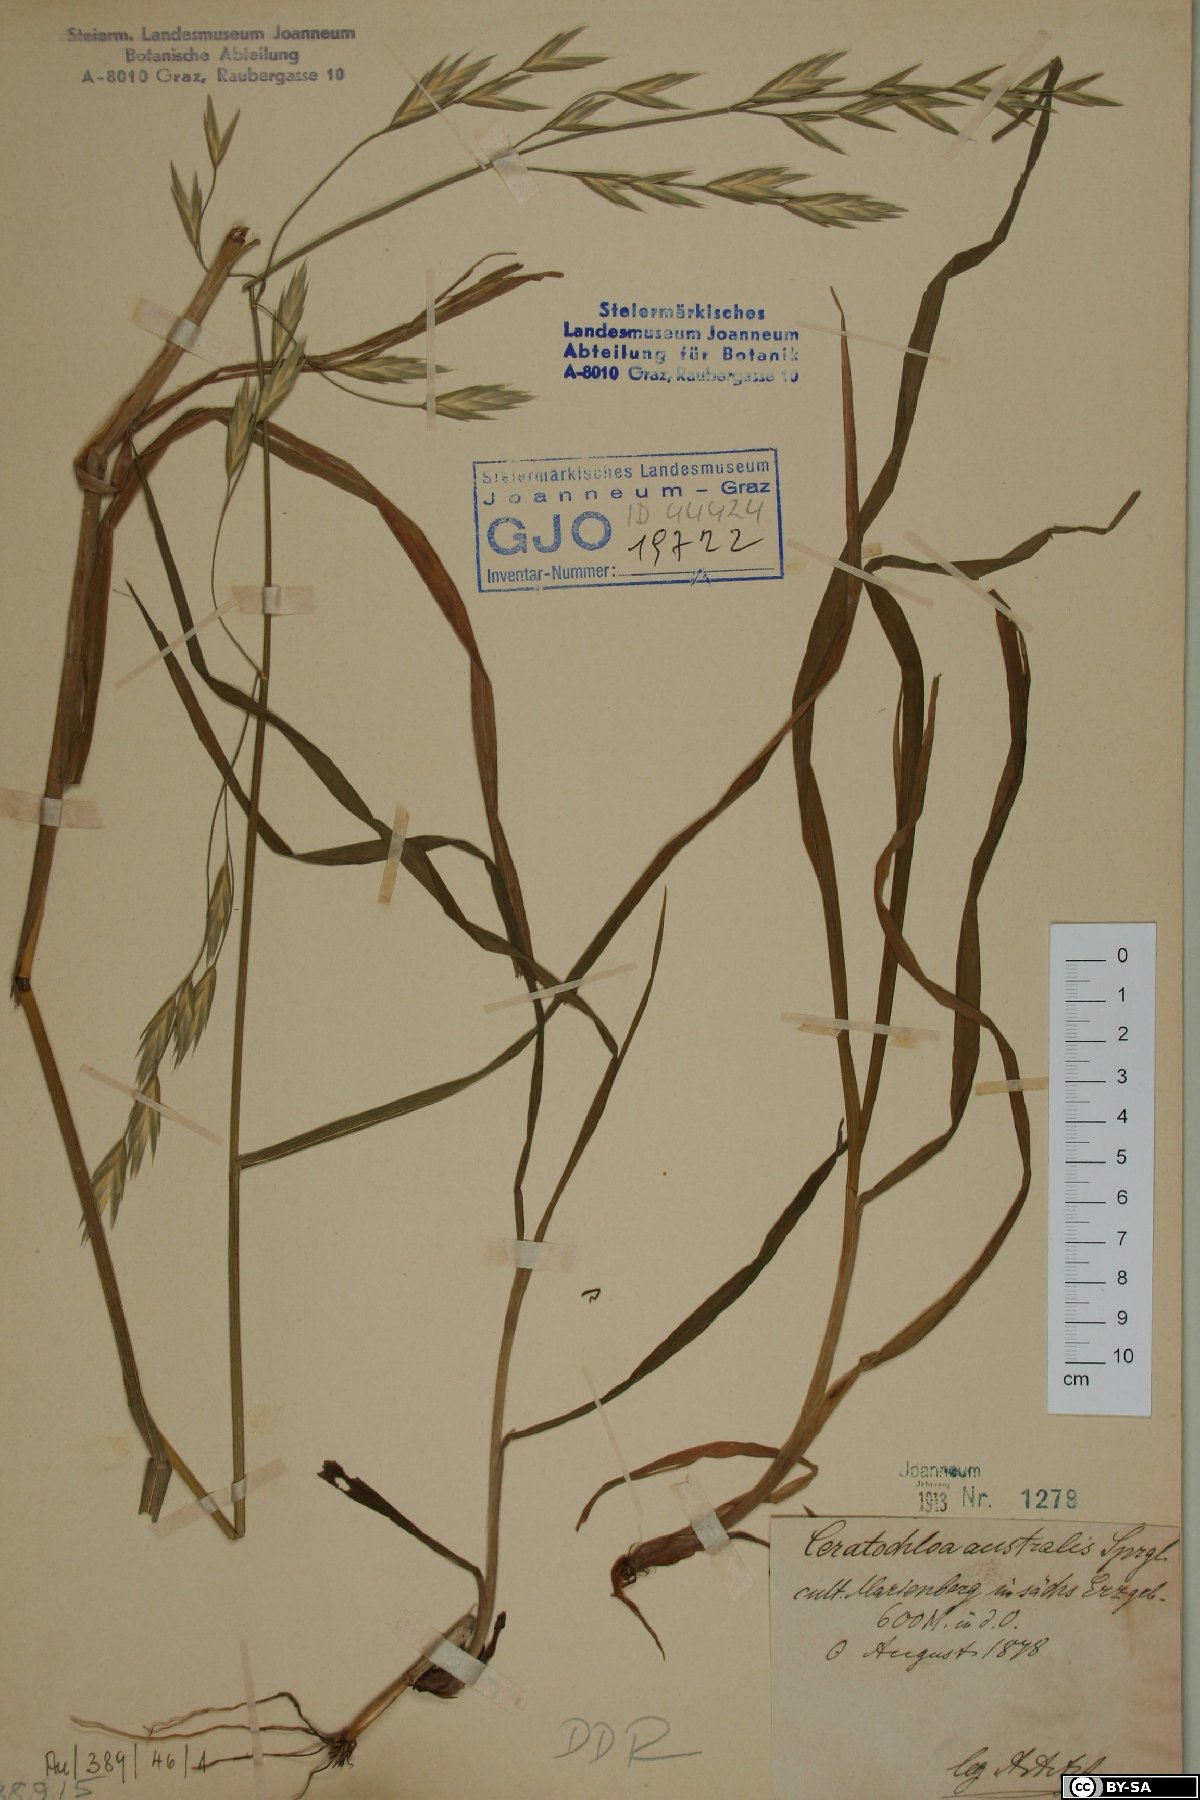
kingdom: Plantae
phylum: Tracheophyta
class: Liliopsida
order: Poales
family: Poaceae
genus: Bromus
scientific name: Bromus catharticus
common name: Rescuegrass
